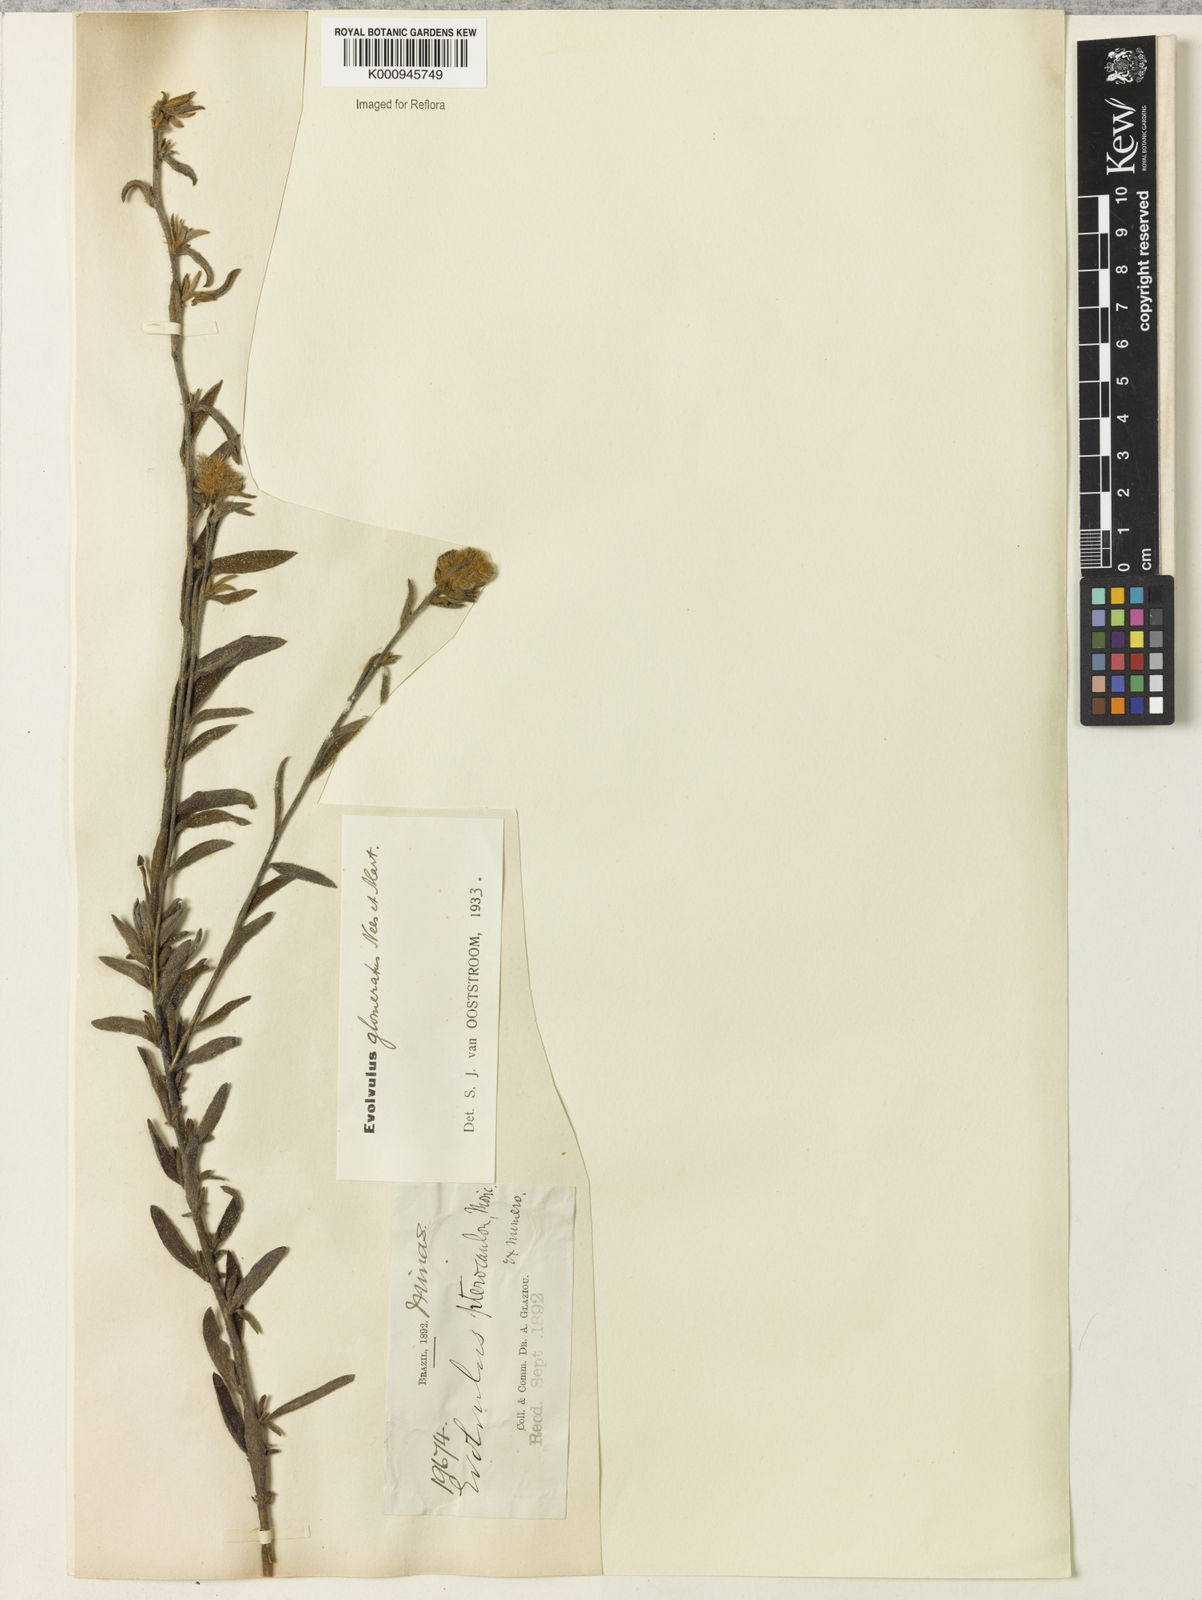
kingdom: Plantae
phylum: Tracheophyta
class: Magnoliopsida
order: Solanales
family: Convolvulaceae
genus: Evolvulus
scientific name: Evolvulus glomeratus
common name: Brazilian dwarf morning-glory
